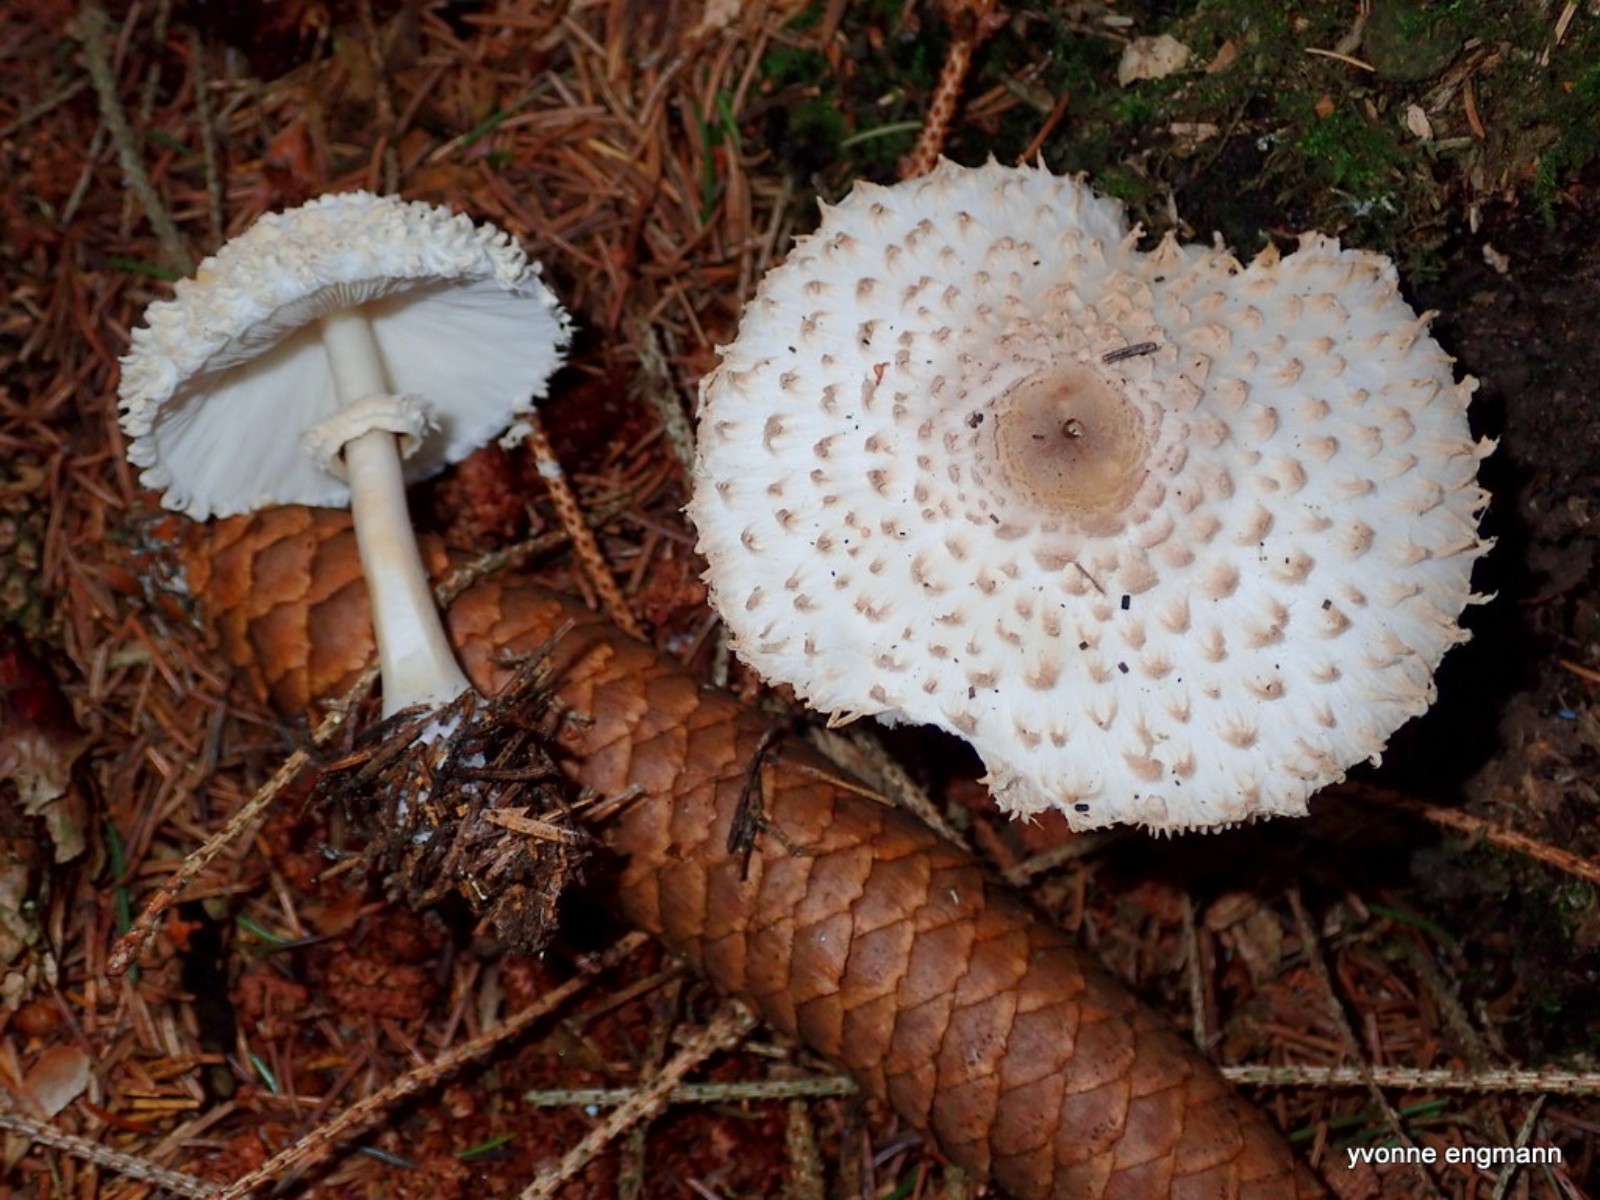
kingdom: Fungi
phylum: Basidiomycota
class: Agaricomycetes
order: Agaricales
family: Agaricaceae
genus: Leucoagaricus
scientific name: Leucoagaricus nympharum
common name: gran-silkehat
